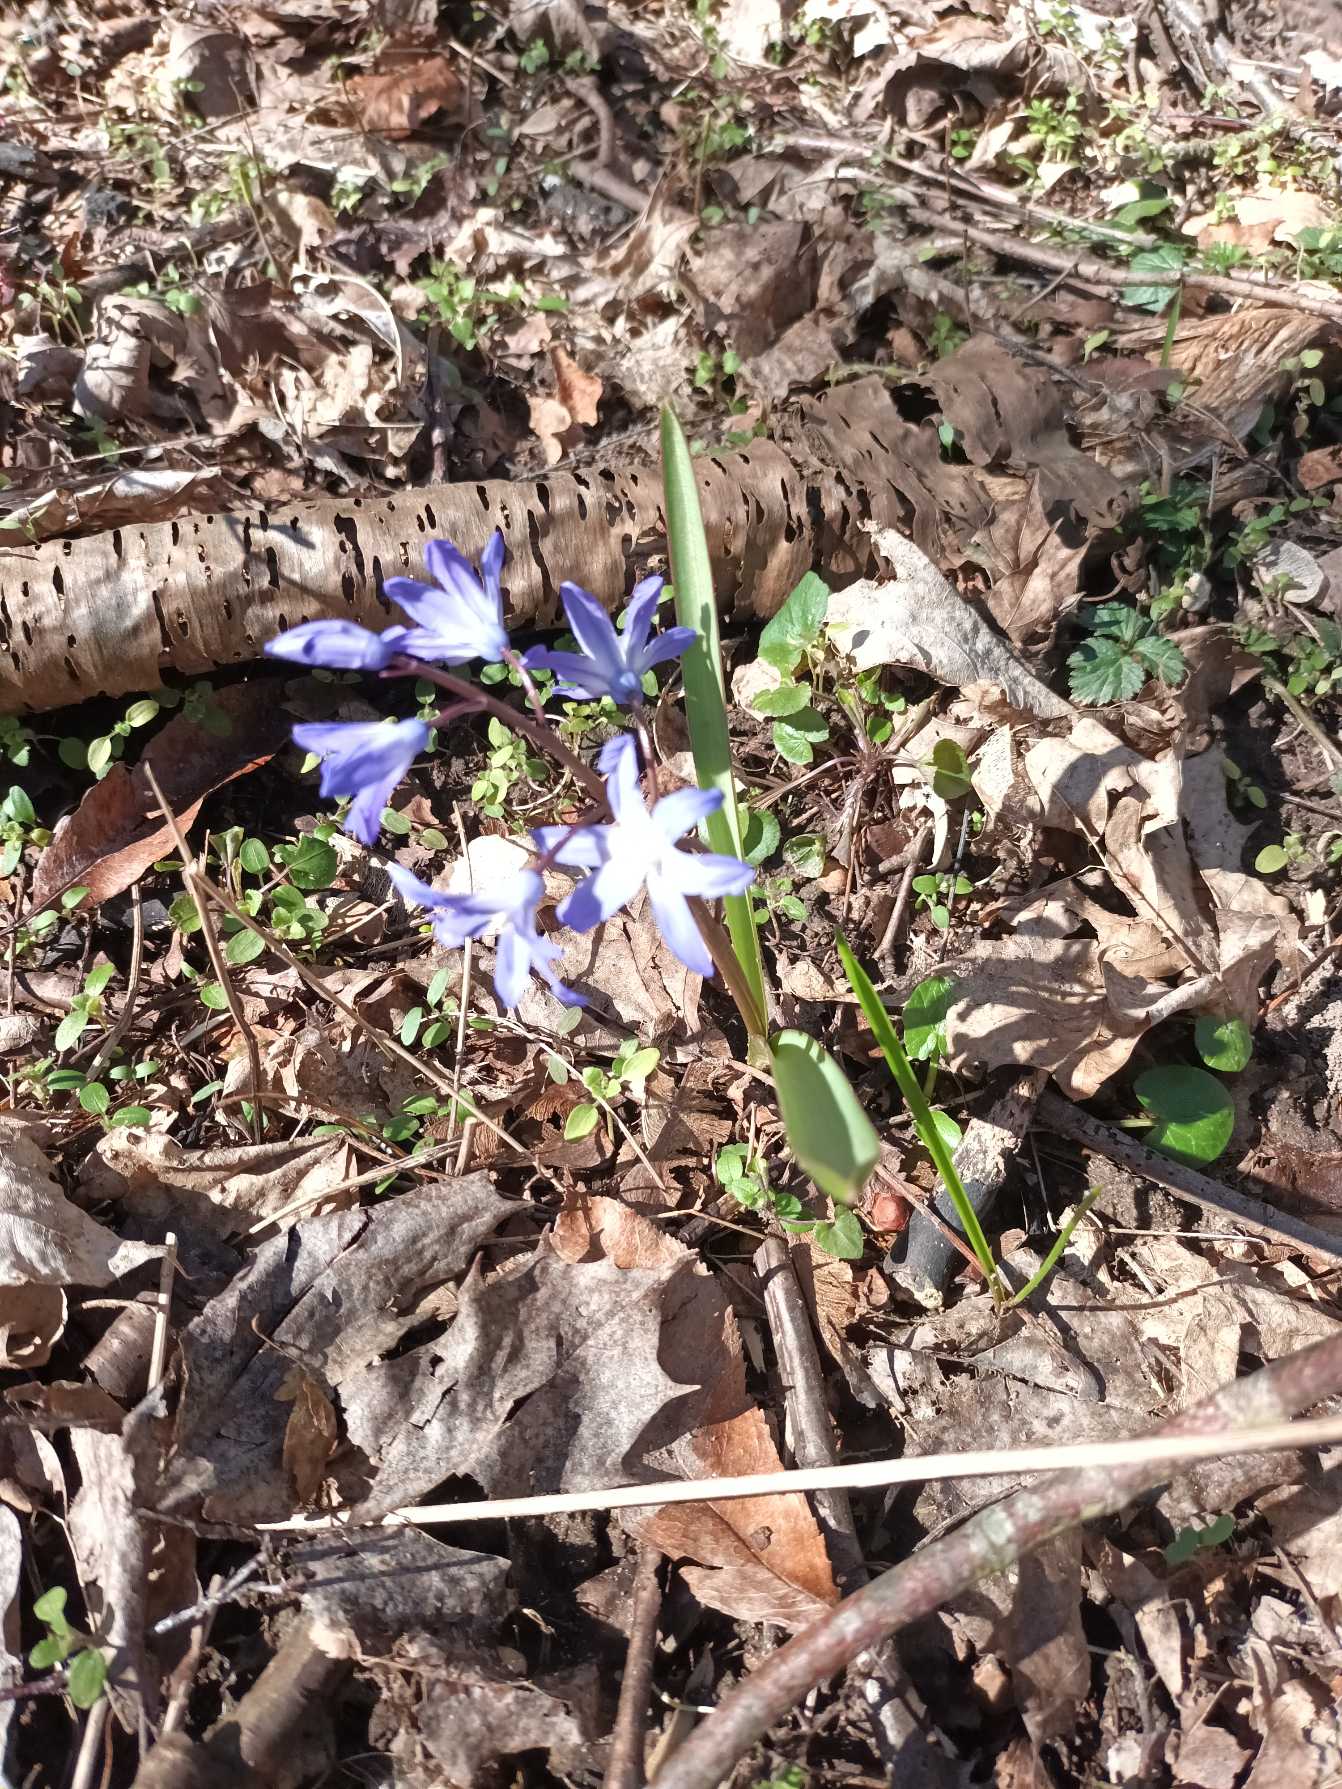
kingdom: Plantae
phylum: Tracheophyta
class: Liliopsida
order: Asparagales
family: Asparagaceae
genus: Scilla
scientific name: Scilla forbesii
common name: Almindelig snepryd
